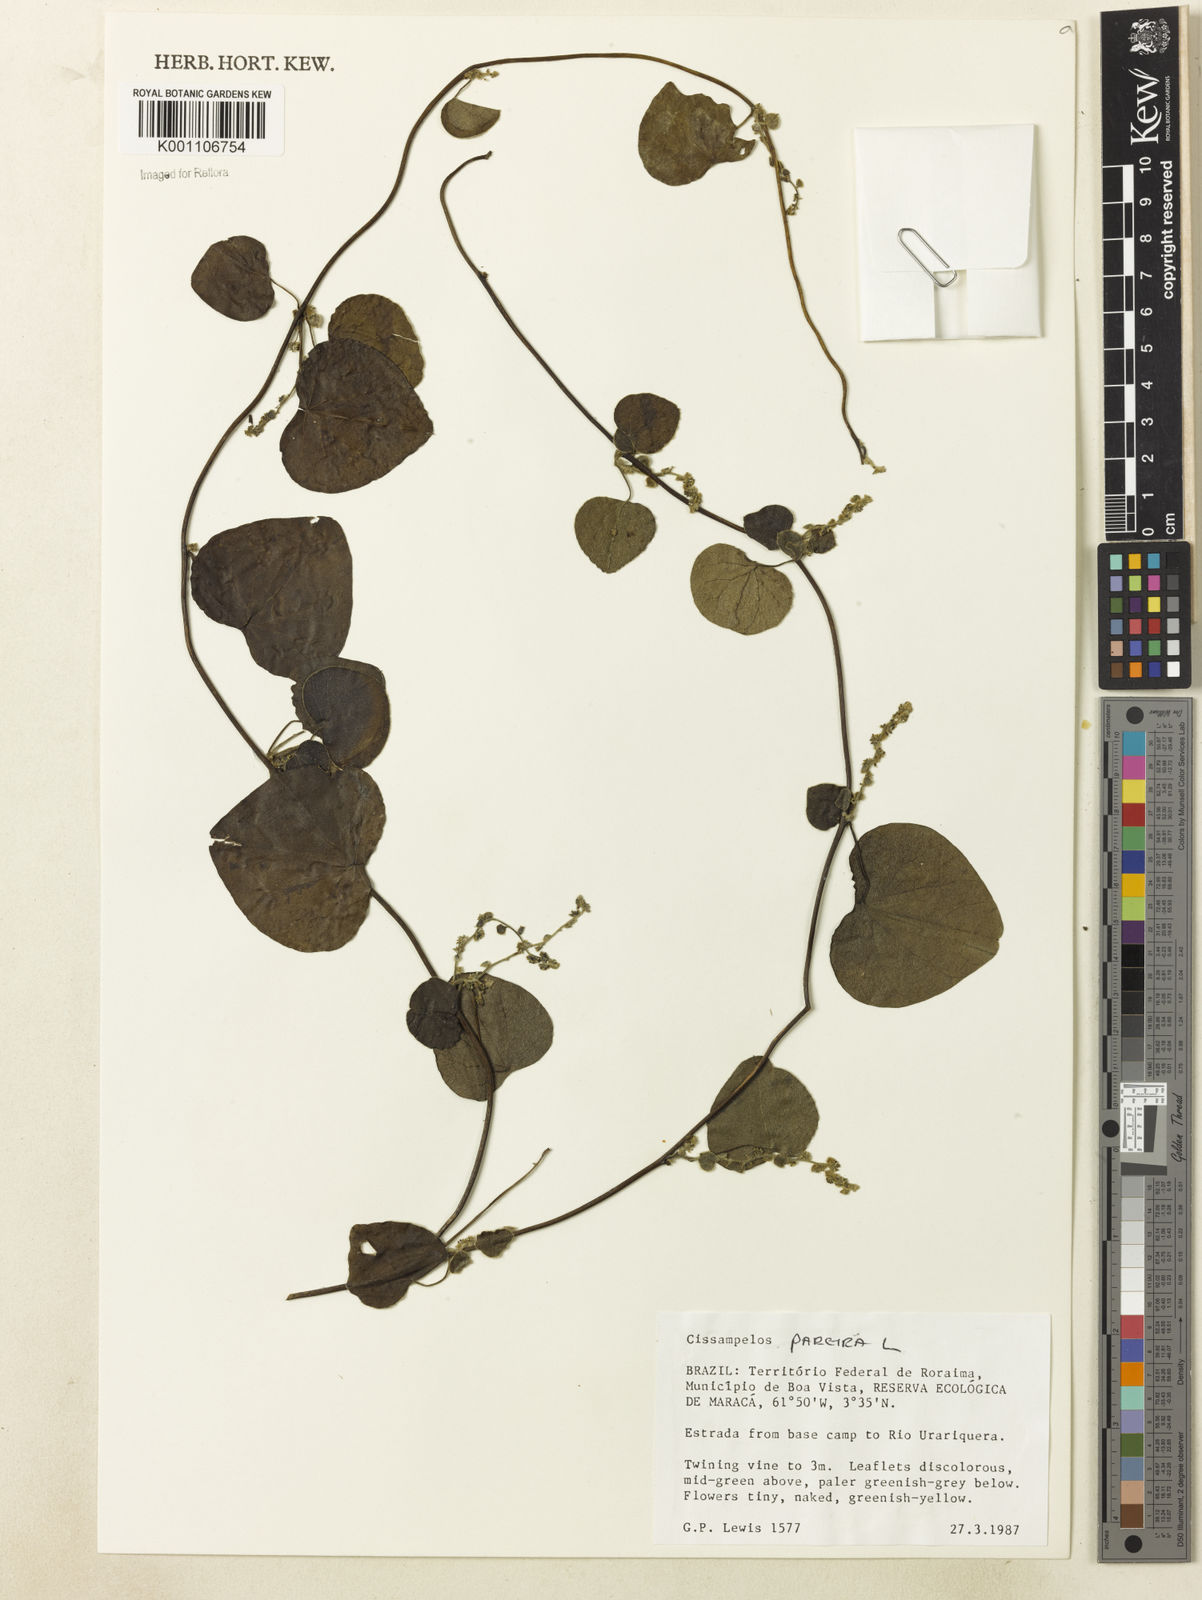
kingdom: Plantae
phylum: Tracheophyta
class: Magnoliopsida
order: Ranunculales
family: Menispermaceae
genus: Cissampelos
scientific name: Cissampelos pareira
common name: Velvetleaf
